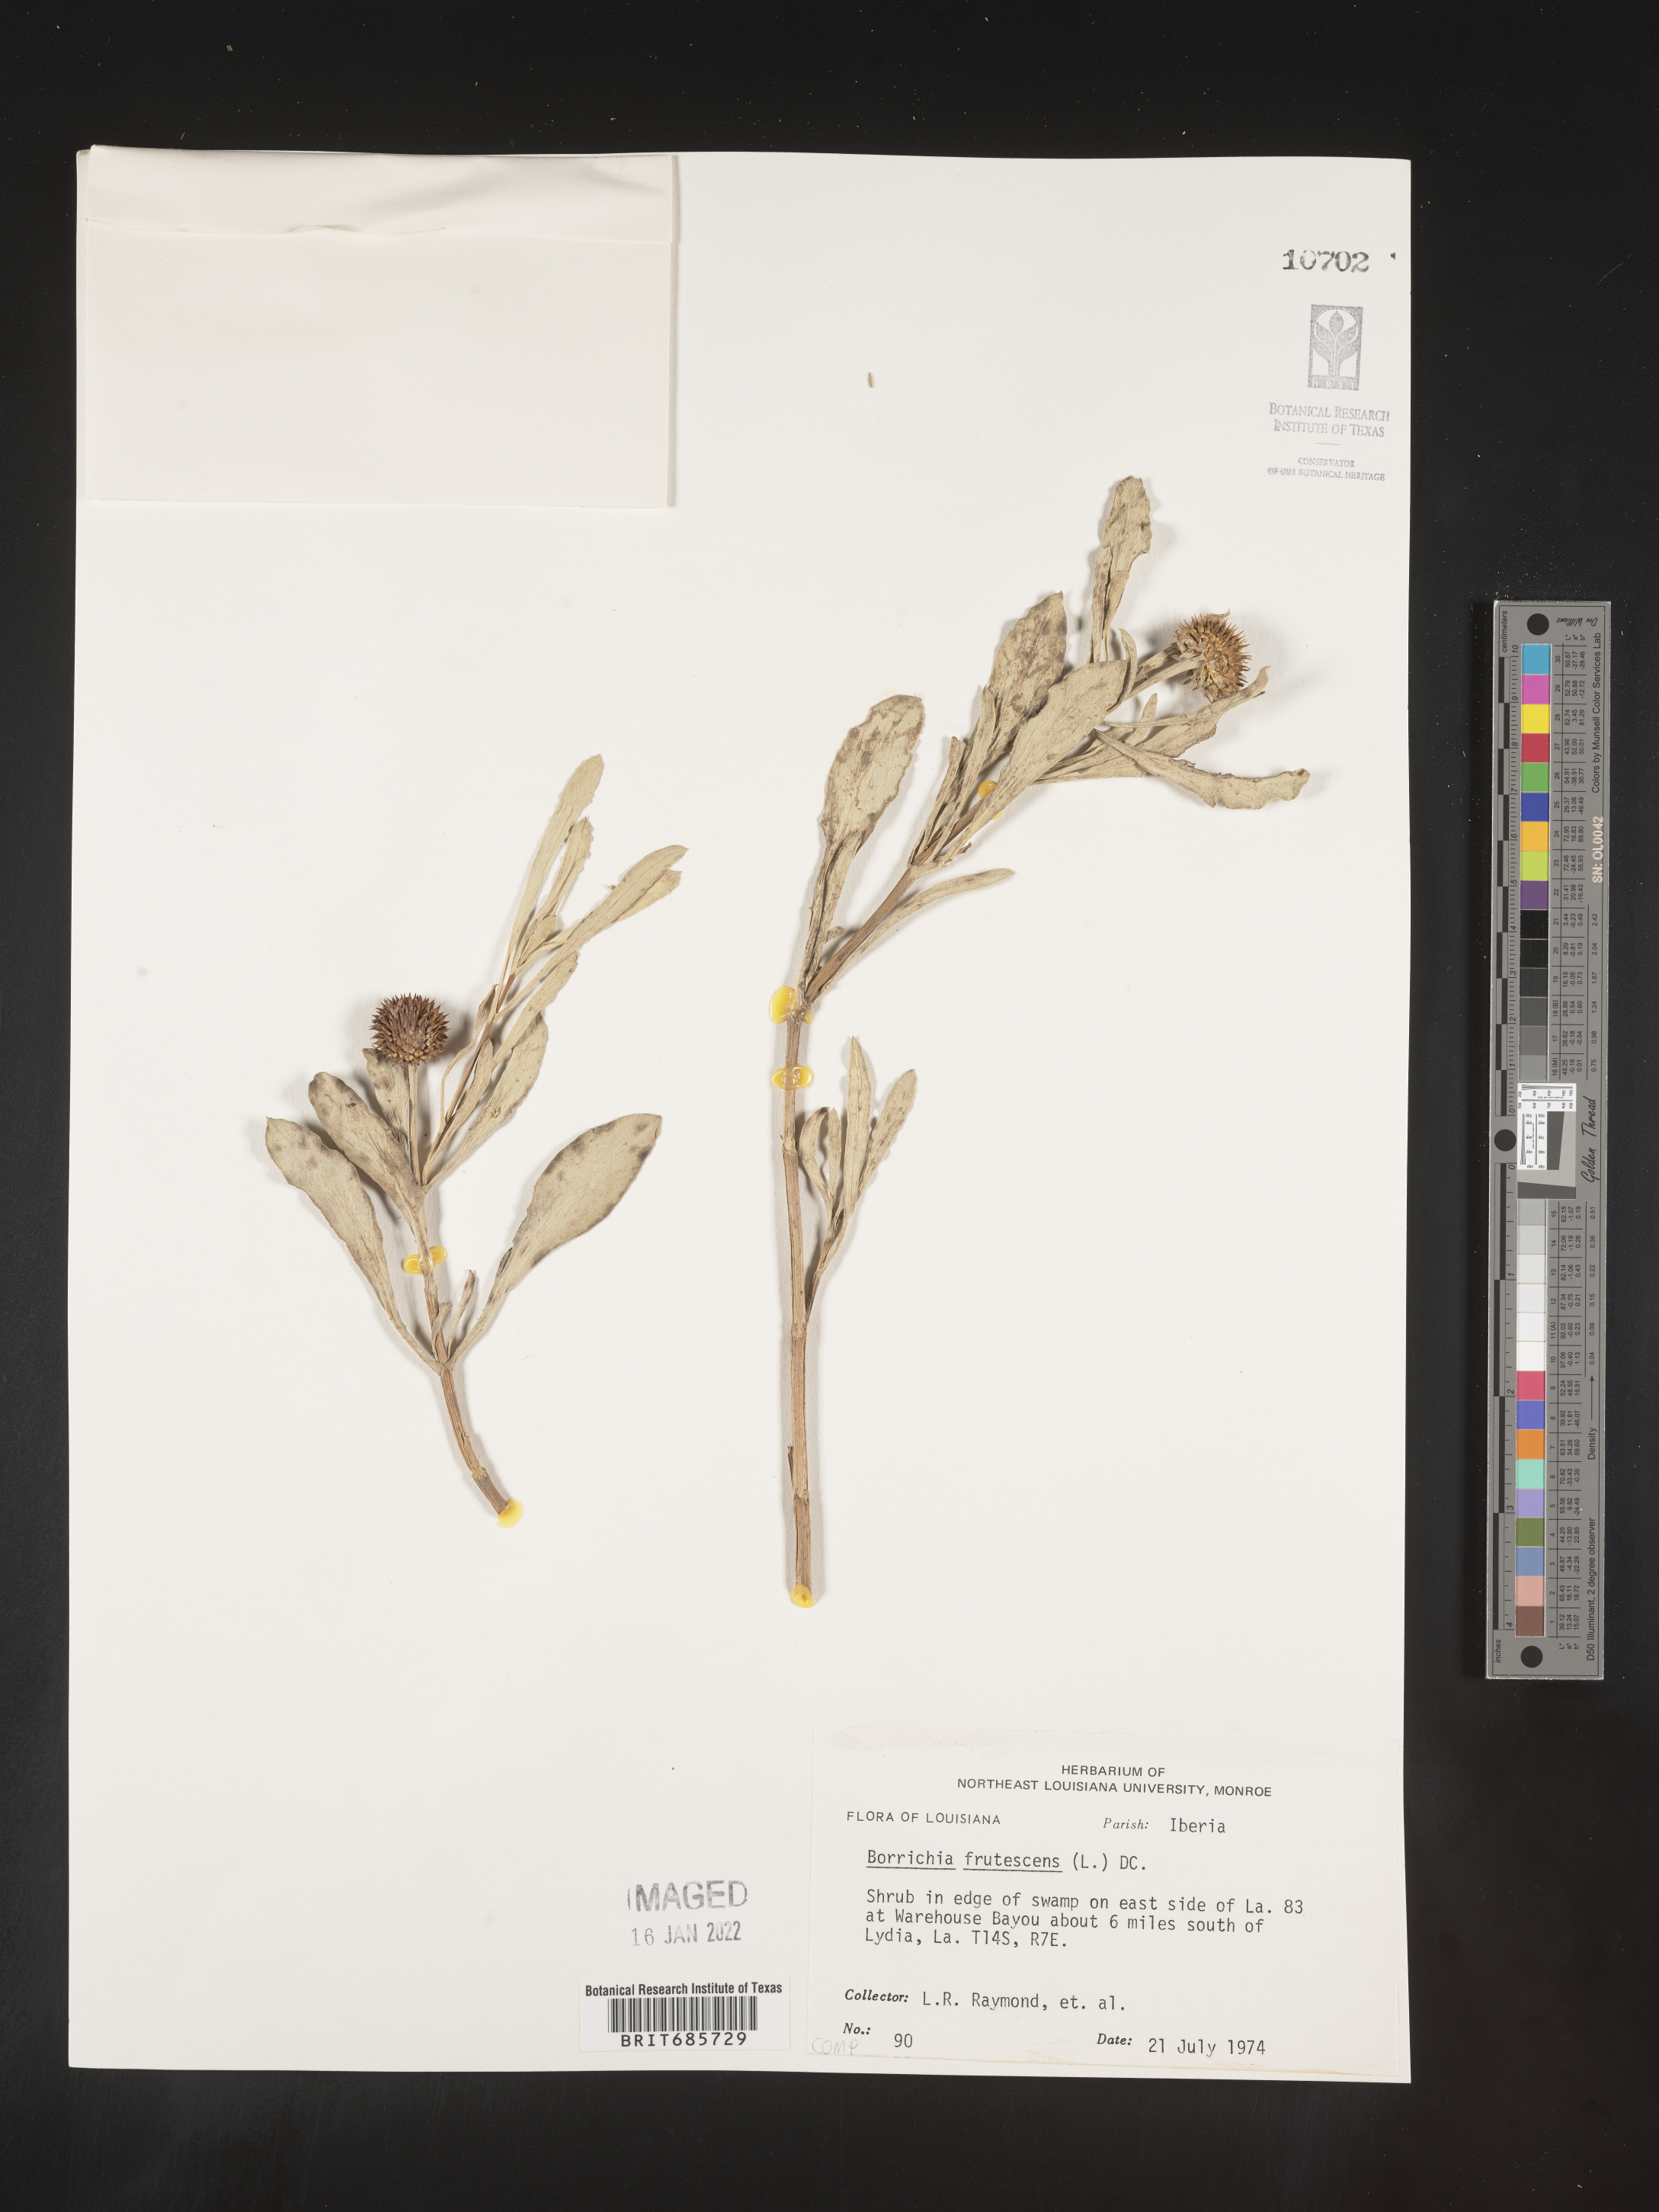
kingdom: Plantae
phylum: Tracheophyta
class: Magnoliopsida
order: Asterales
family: Asteraceae
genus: Borrichia
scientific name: Borrichia frutescens
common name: Sea oxeye
